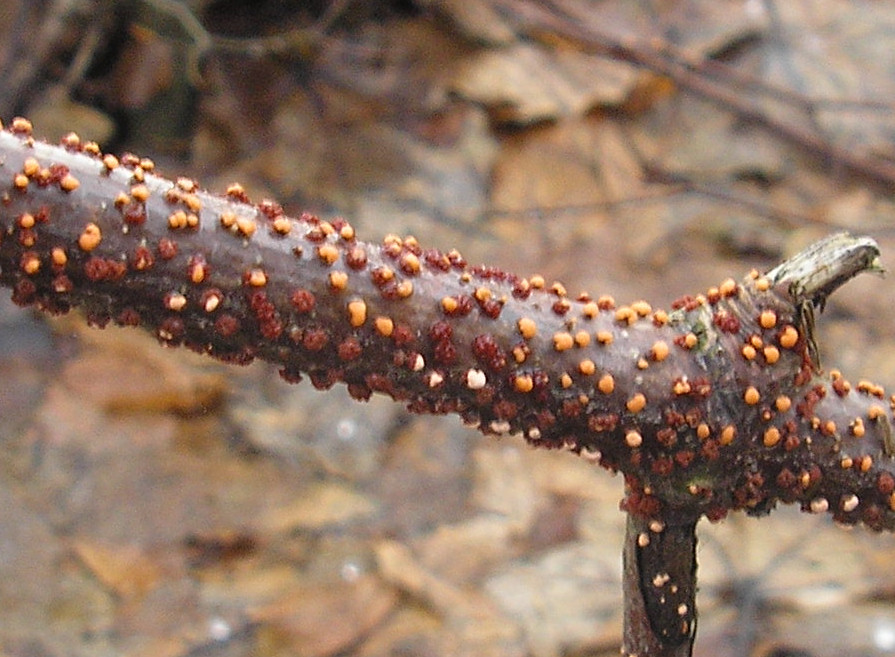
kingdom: Fungi
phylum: Ascomycota
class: Sordariomycetes
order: Hypocreales
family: Nectriaceae
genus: Nectria
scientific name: Nectria cinnabarina
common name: almindelig cinnobersvamp
